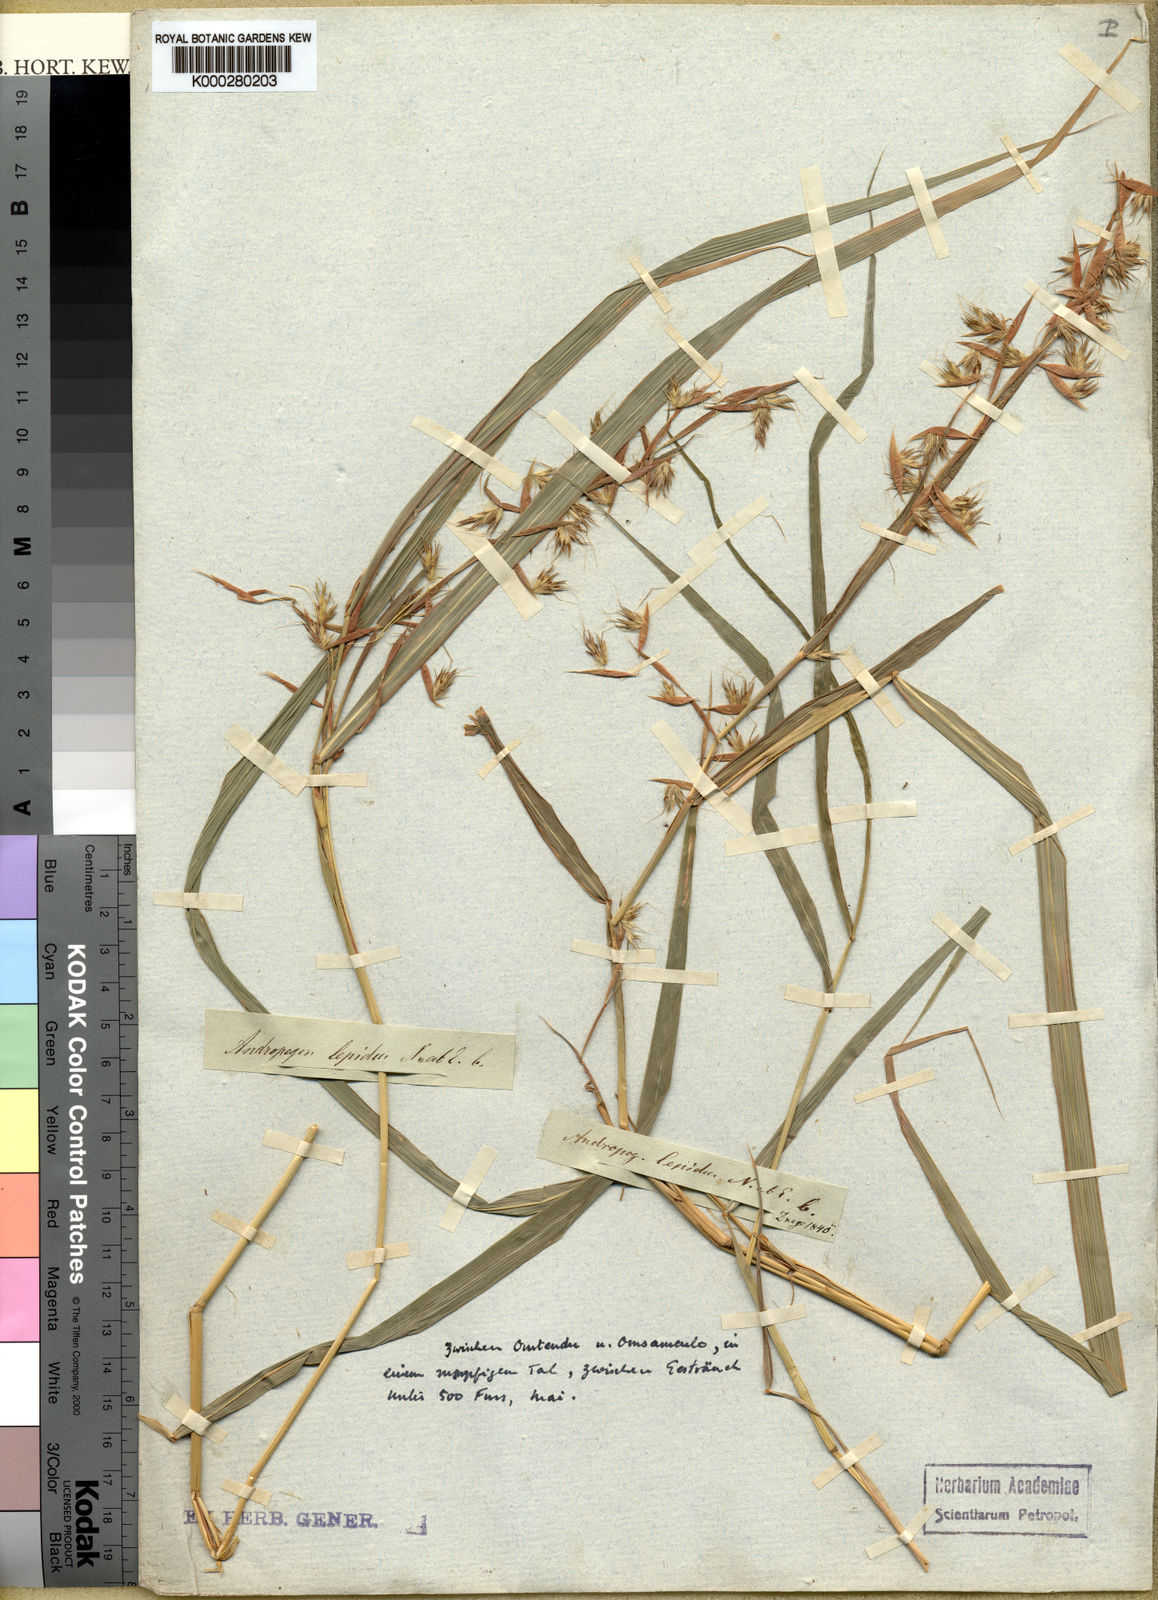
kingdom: Plantae
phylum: Tracheophyta
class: Liliopsida
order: Poales
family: Poaceae
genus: Hyparrhenia
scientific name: Hyparrhenia cymbaria
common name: Boat thatching grass
